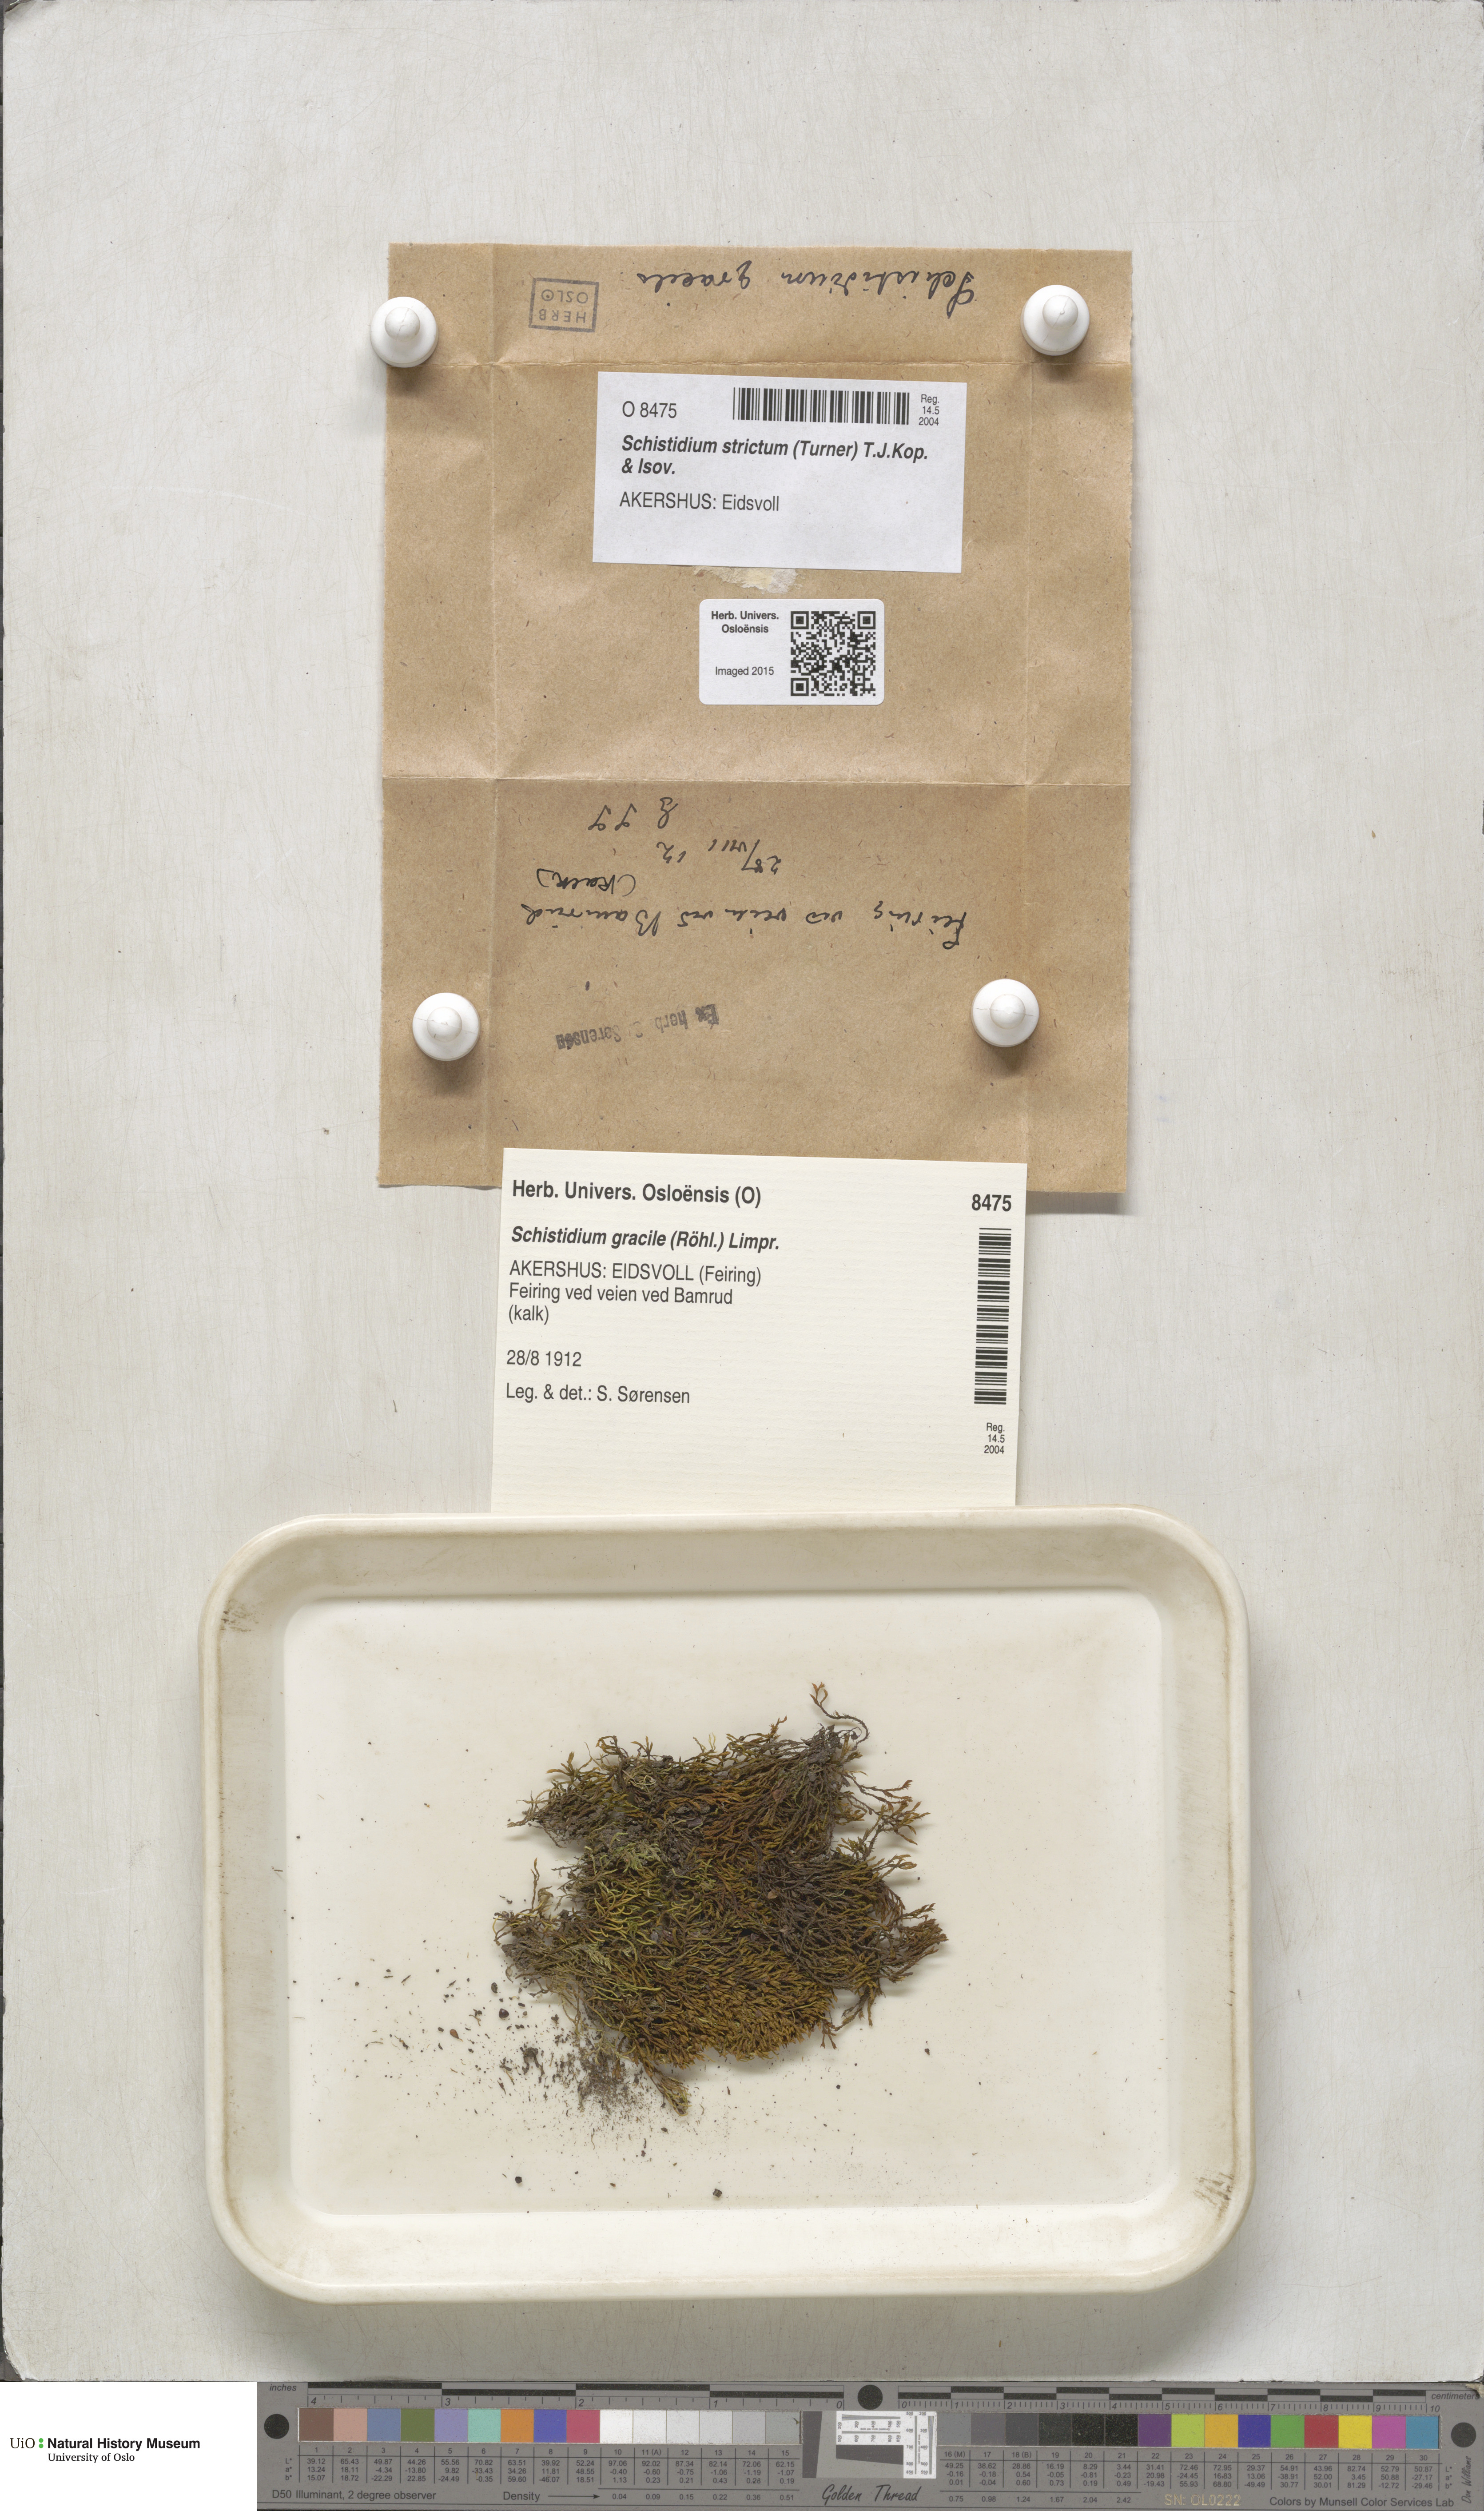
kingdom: Plantae
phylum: Bryophyta
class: Bryopsida
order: Grimmiales
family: Grimmiaceae
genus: Schistidium
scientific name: Schistidium strictum
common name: Upright brown grimmia
